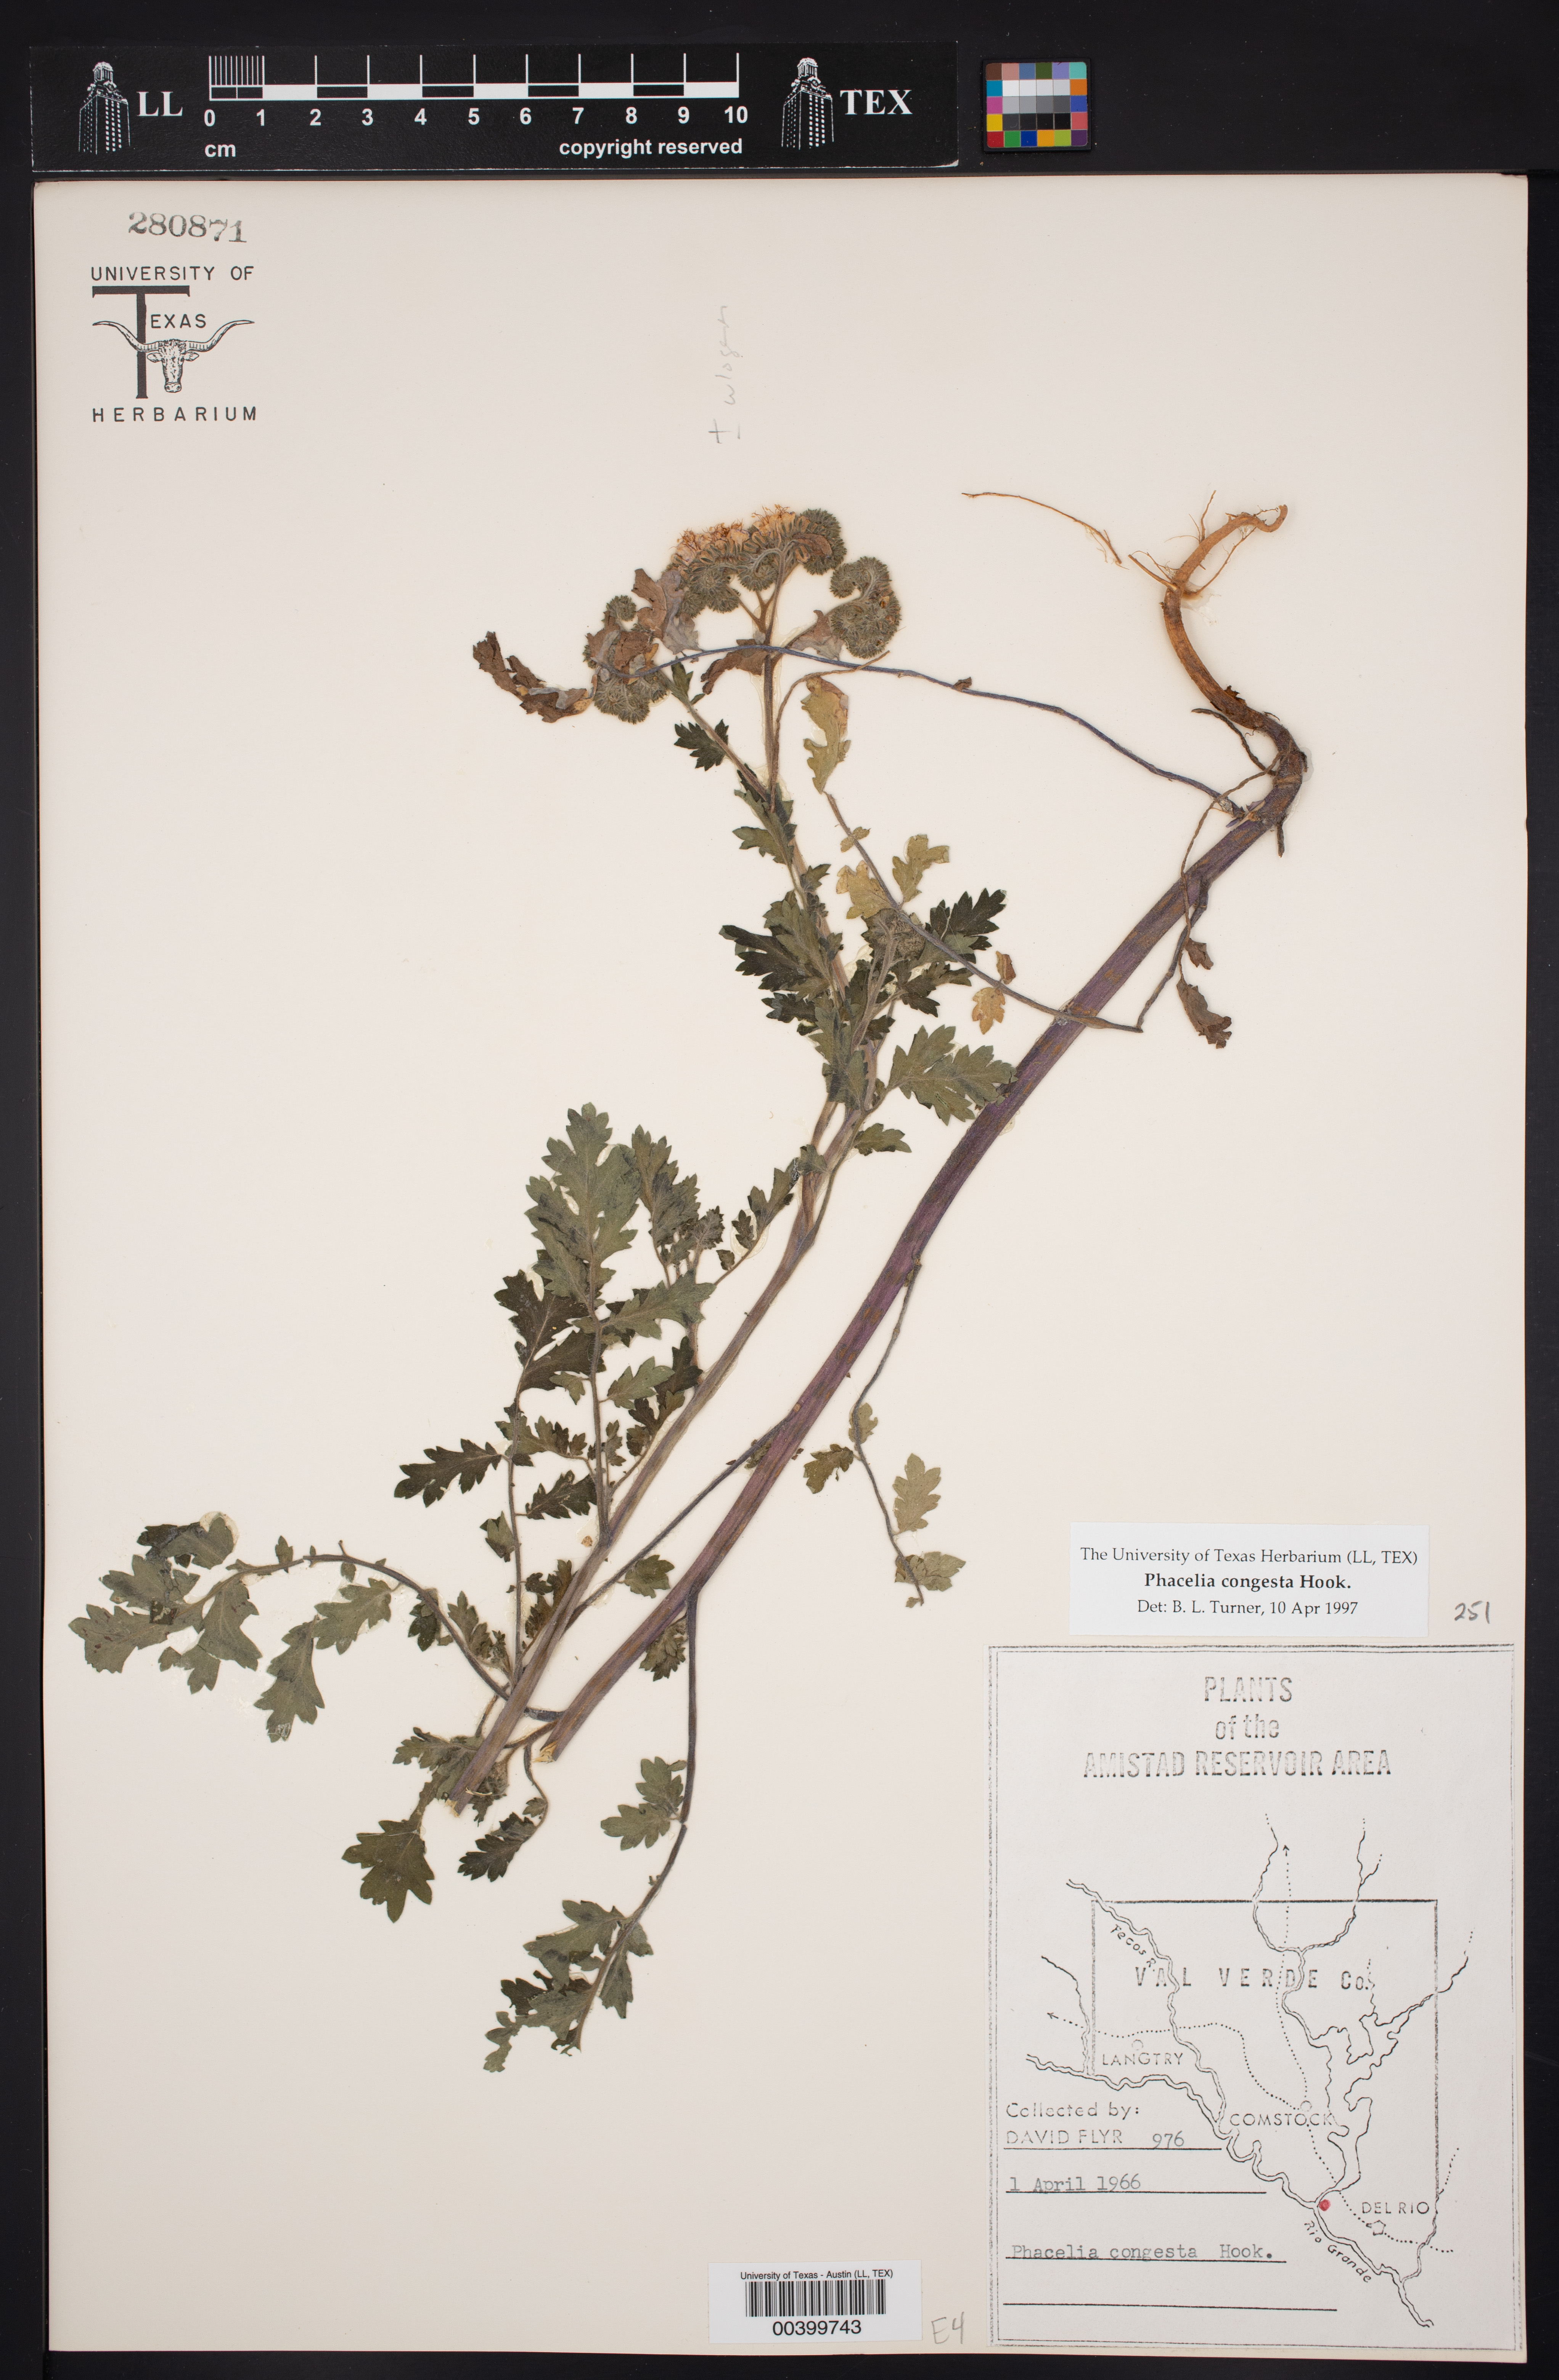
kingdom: Plantae
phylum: Tracheophyta
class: Magnoliopsida
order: Boraginales
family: Hydrophyllaceae
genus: Phacelia
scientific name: Phacelia congesta
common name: Blue curls
